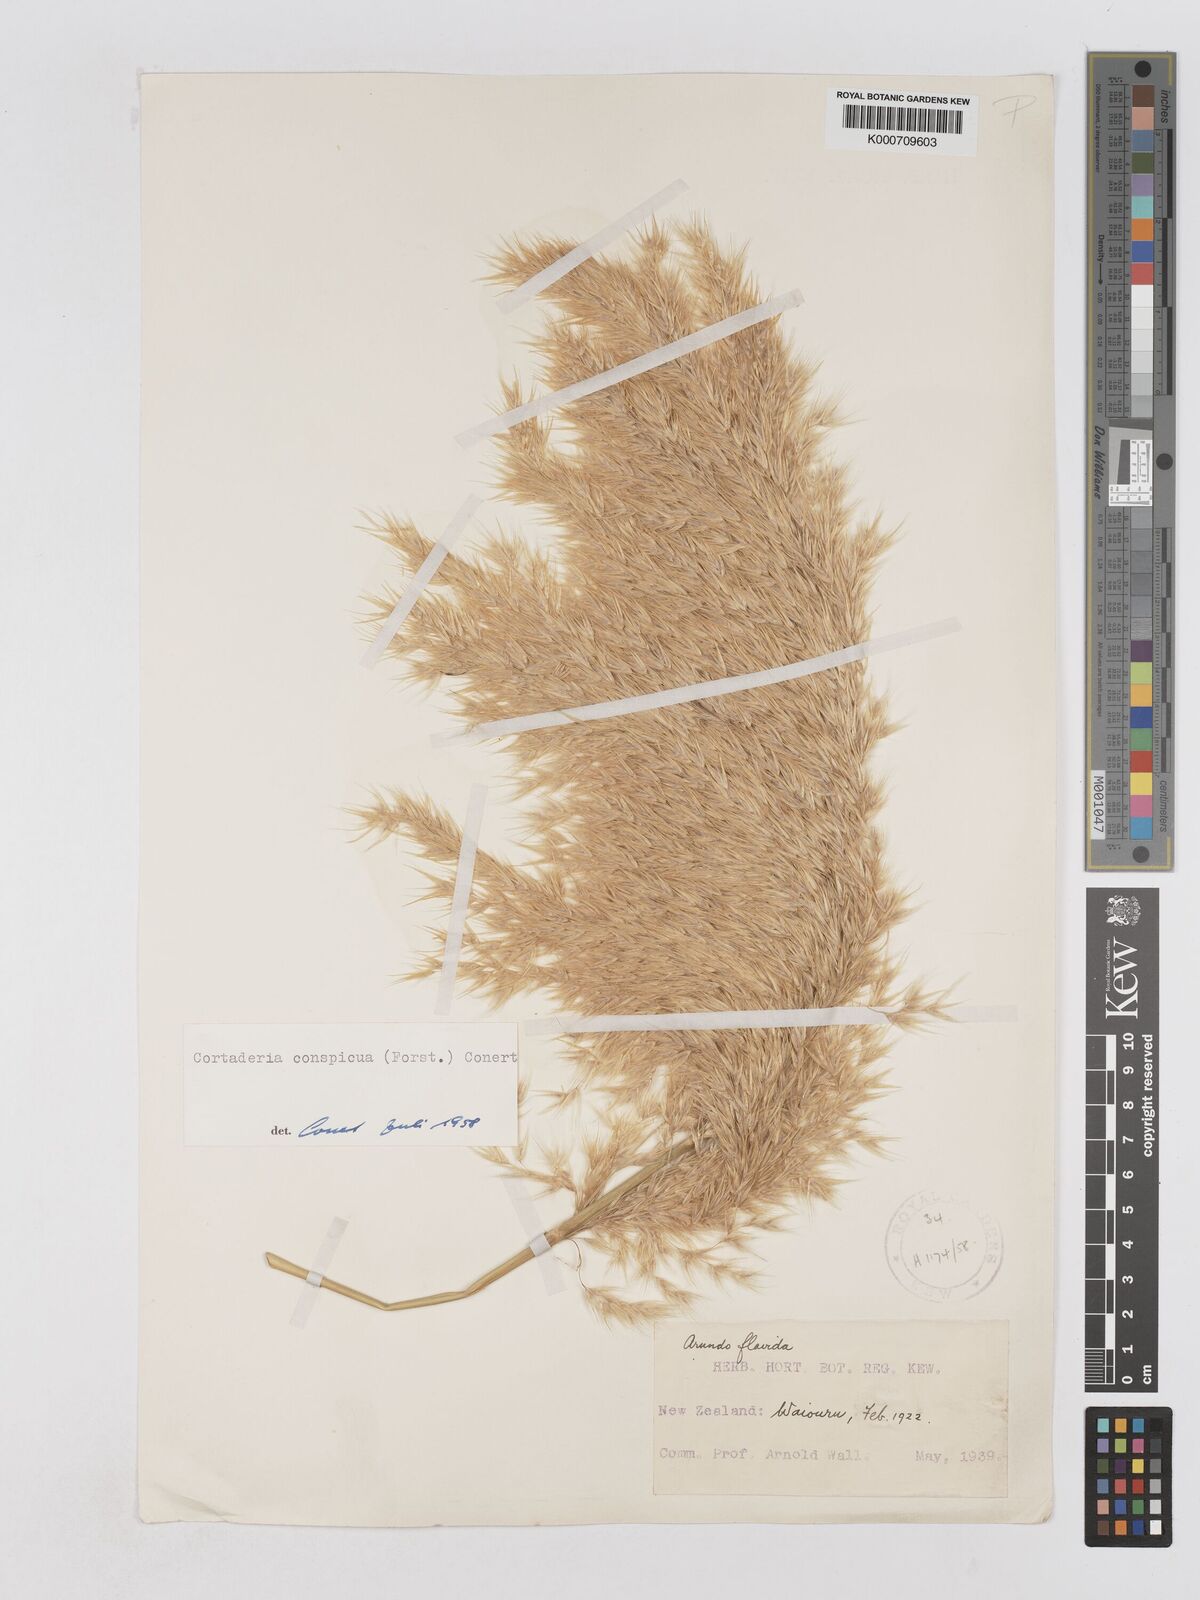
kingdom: Plantae
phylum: Tracheophyta
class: Liliopsida
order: Poales
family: Poaceae
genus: Austroderia
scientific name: Austroderia richardii
